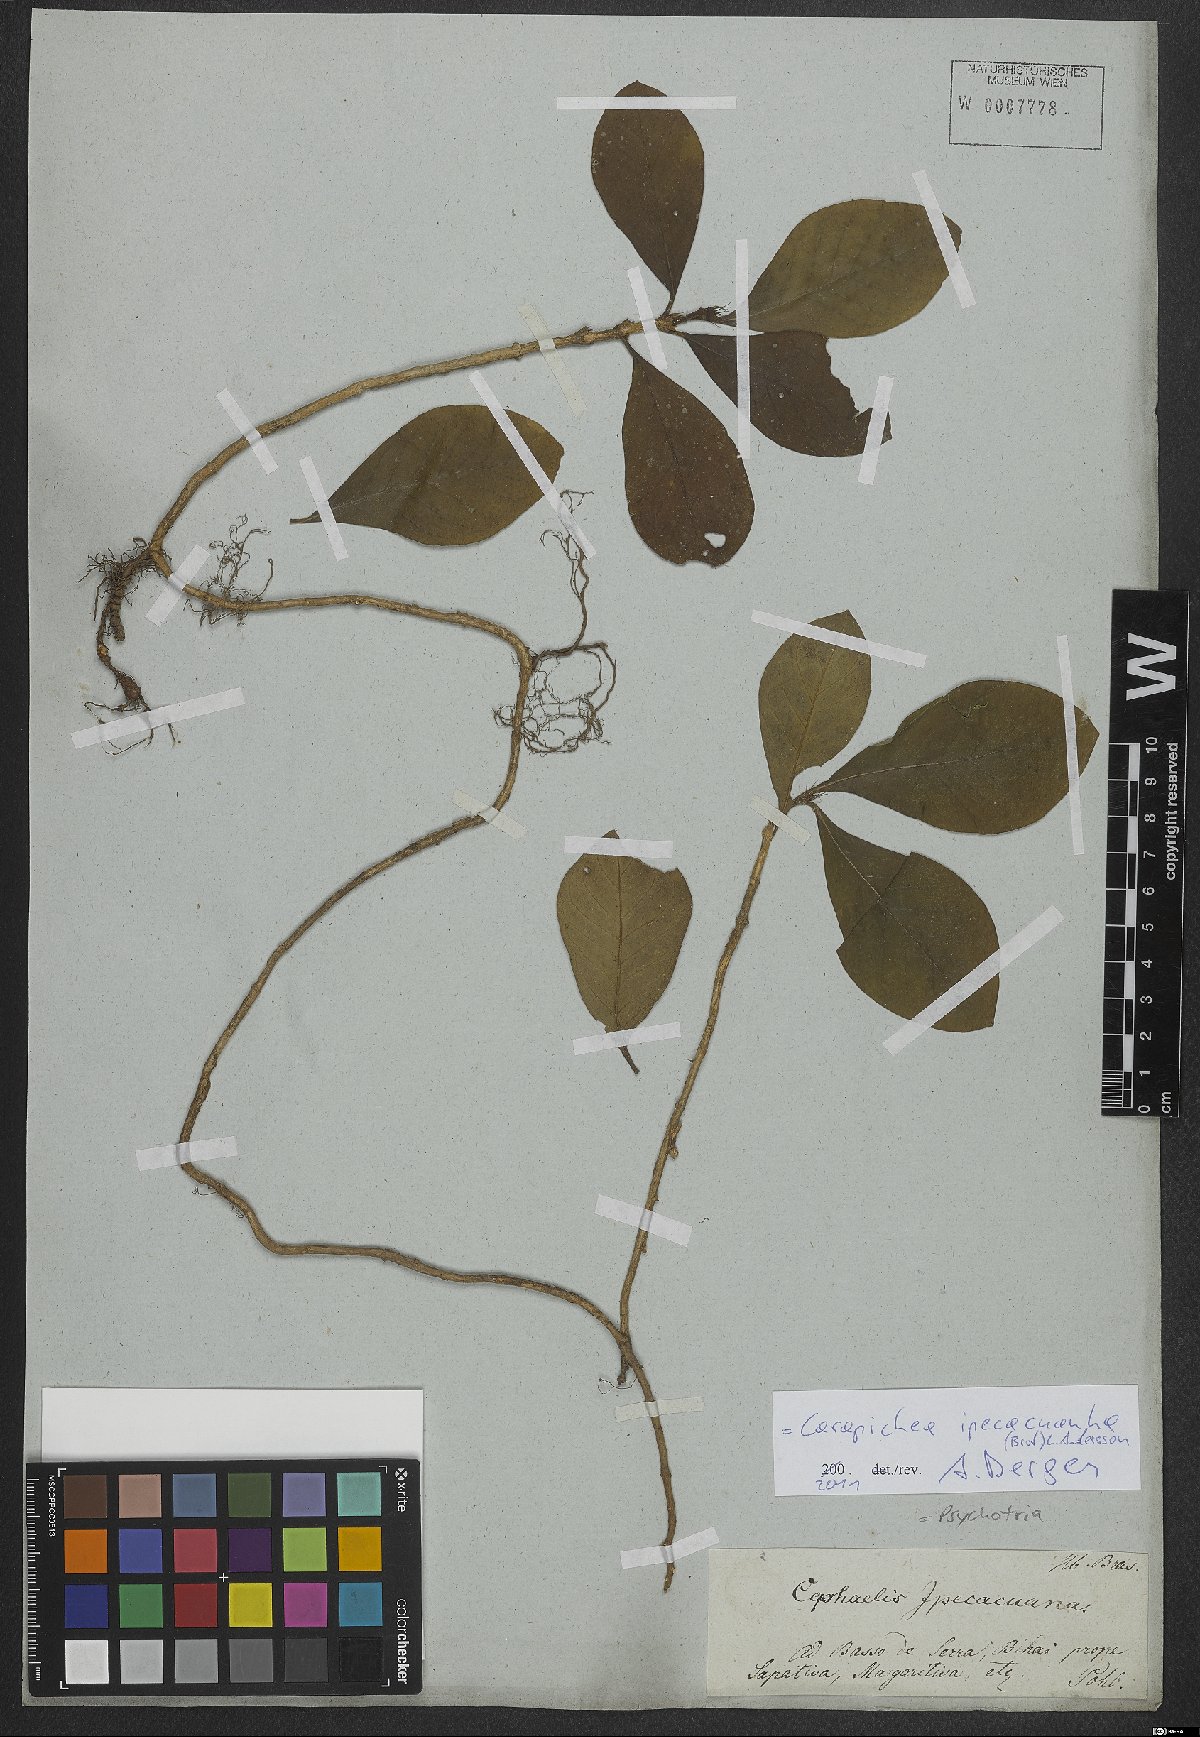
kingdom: Plantae
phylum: Tracheophyta
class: Magnoliopsida
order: Gentianales
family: Rubiaceae
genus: Carapichea
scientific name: Carapichea ipecacuanha
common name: Ipecac
